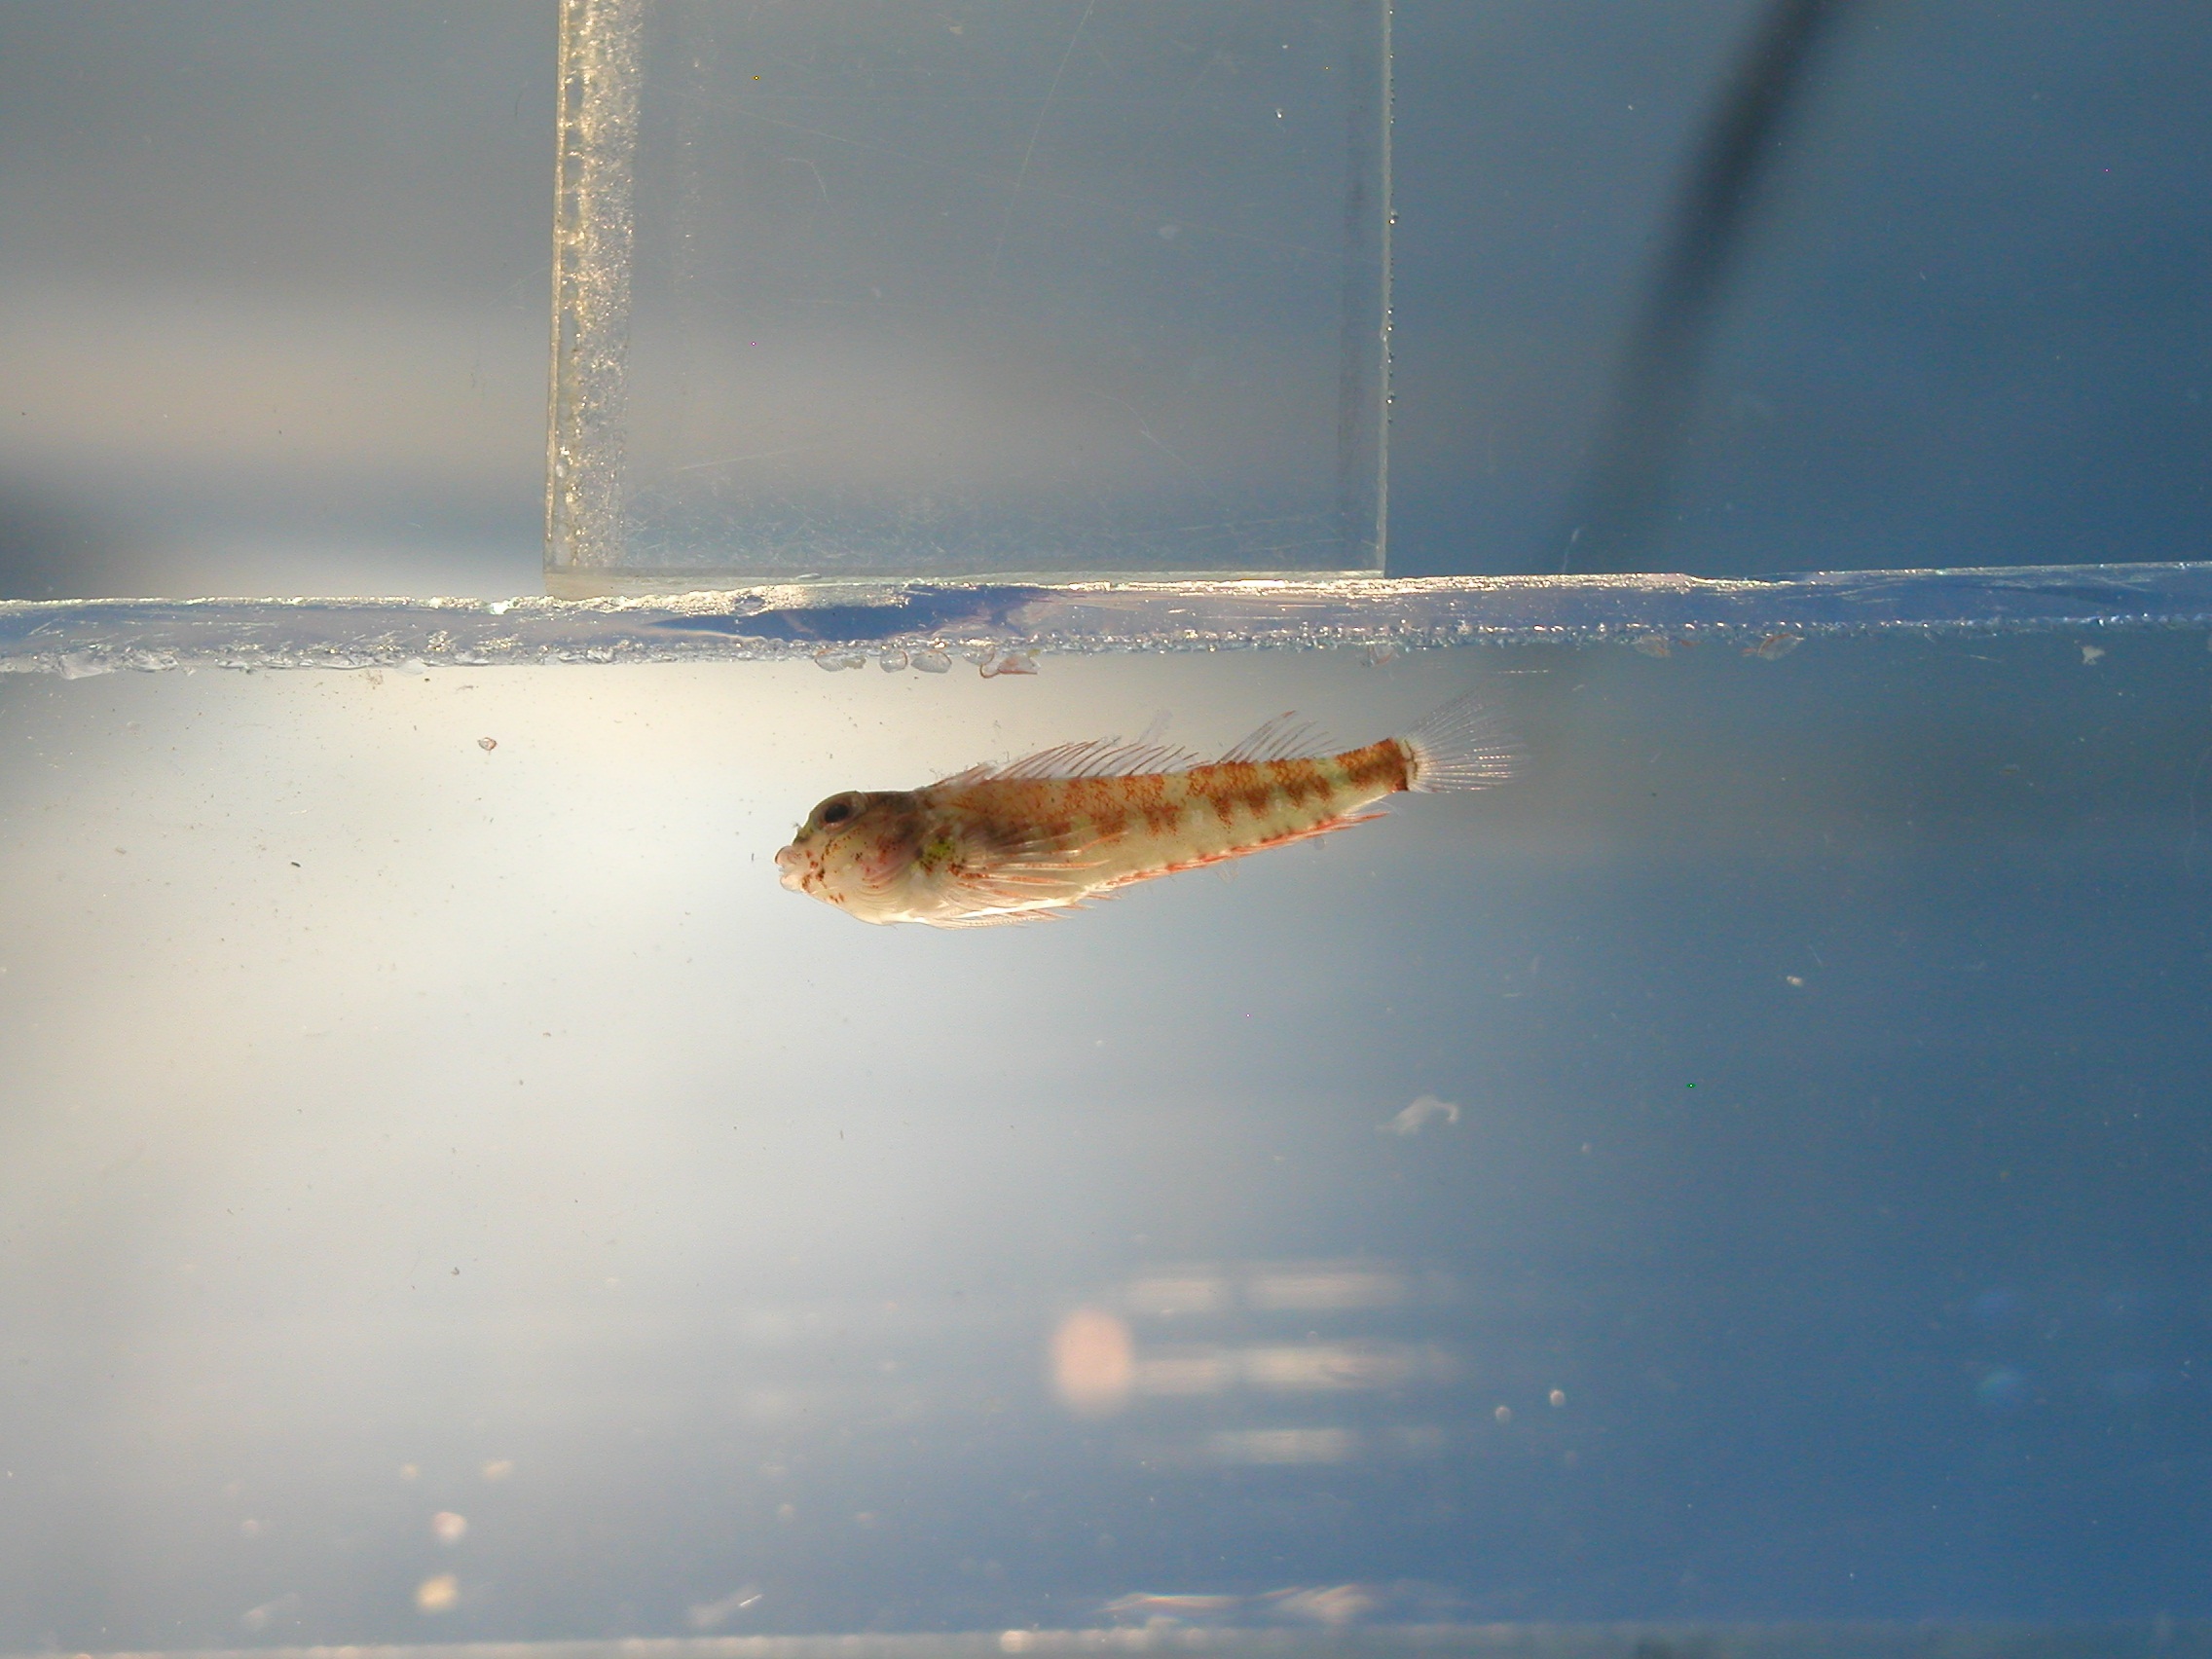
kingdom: Animalia
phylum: Chordata
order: Perciformes
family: Tripterygiidae
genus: Enneapterygius
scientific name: Enneapterygius abeli
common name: Yellow triplefin
